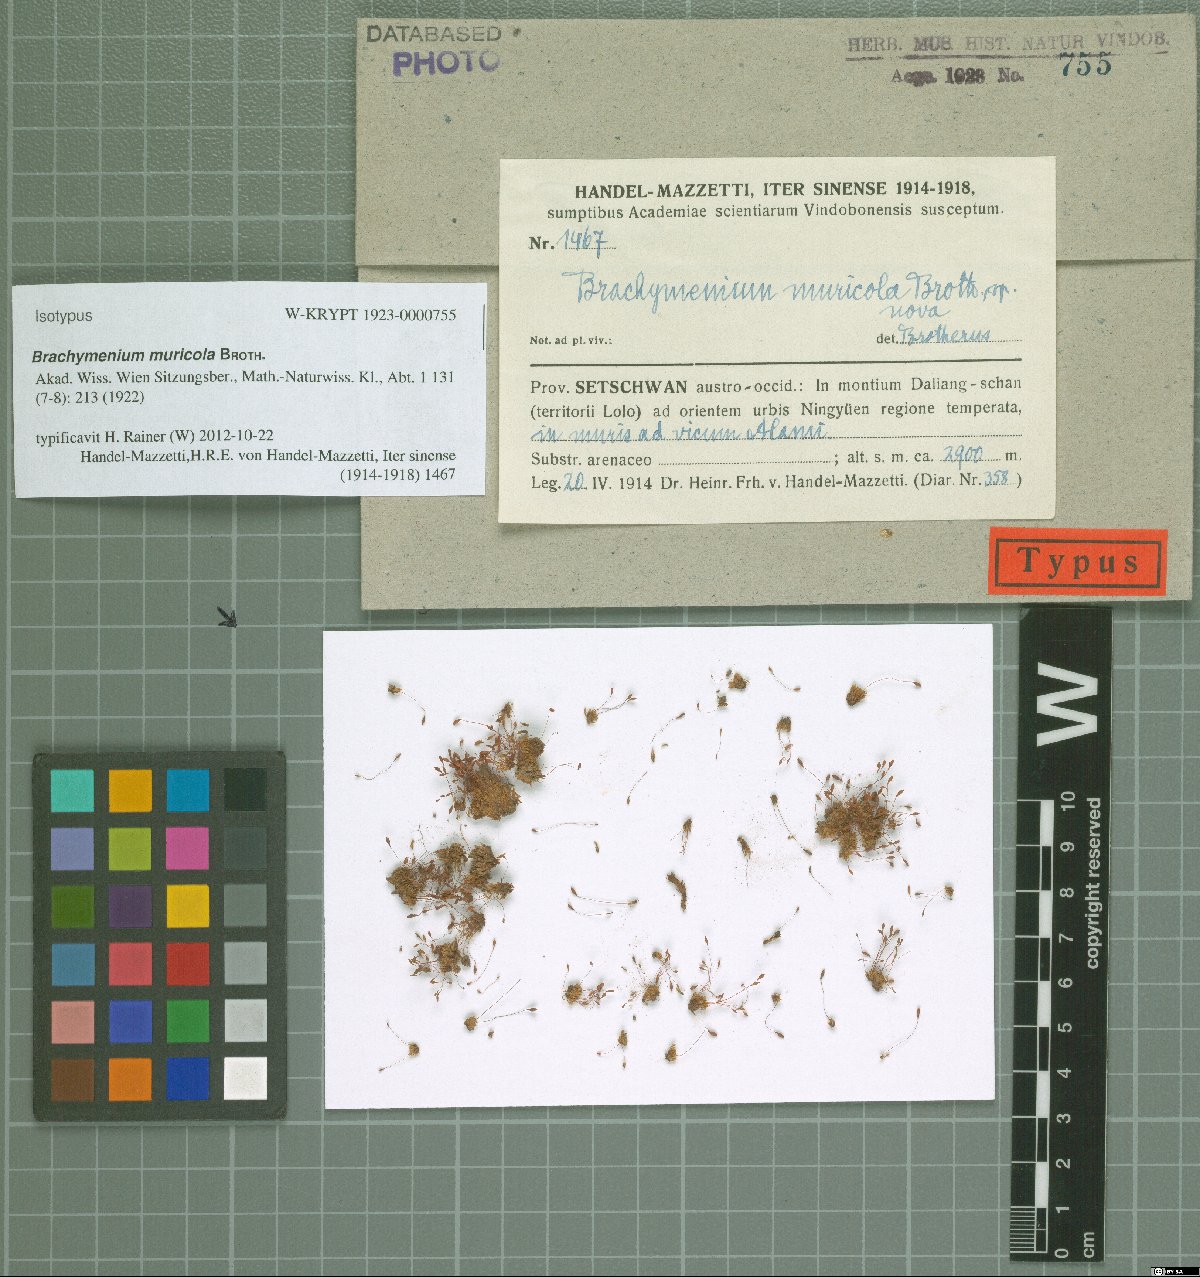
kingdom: Plantae
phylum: Bryophyta
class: Bryopsida
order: Bryales
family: Bryaceae
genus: Brachymenium
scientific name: Brachymenium muricola
